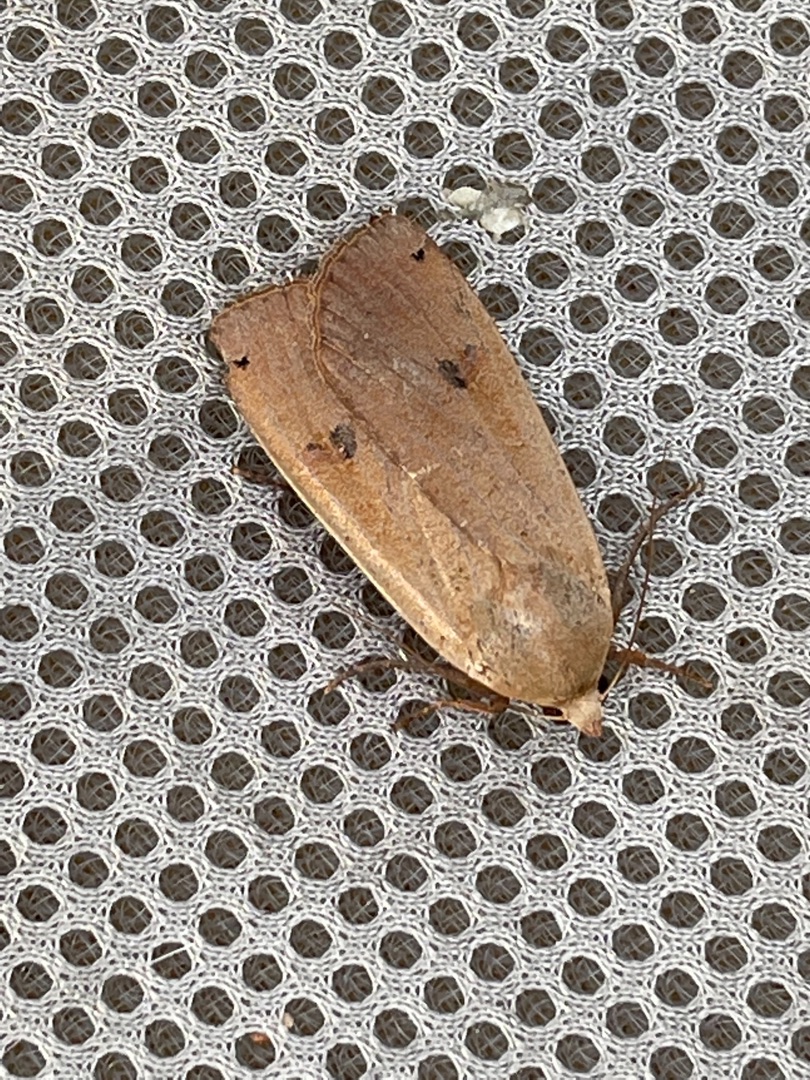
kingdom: Animalia
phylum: Arthropoda
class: Insecta
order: Lepidoptera
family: Noctuidae
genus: Noctua
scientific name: Noctua pronuba
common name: Stor smutugle
